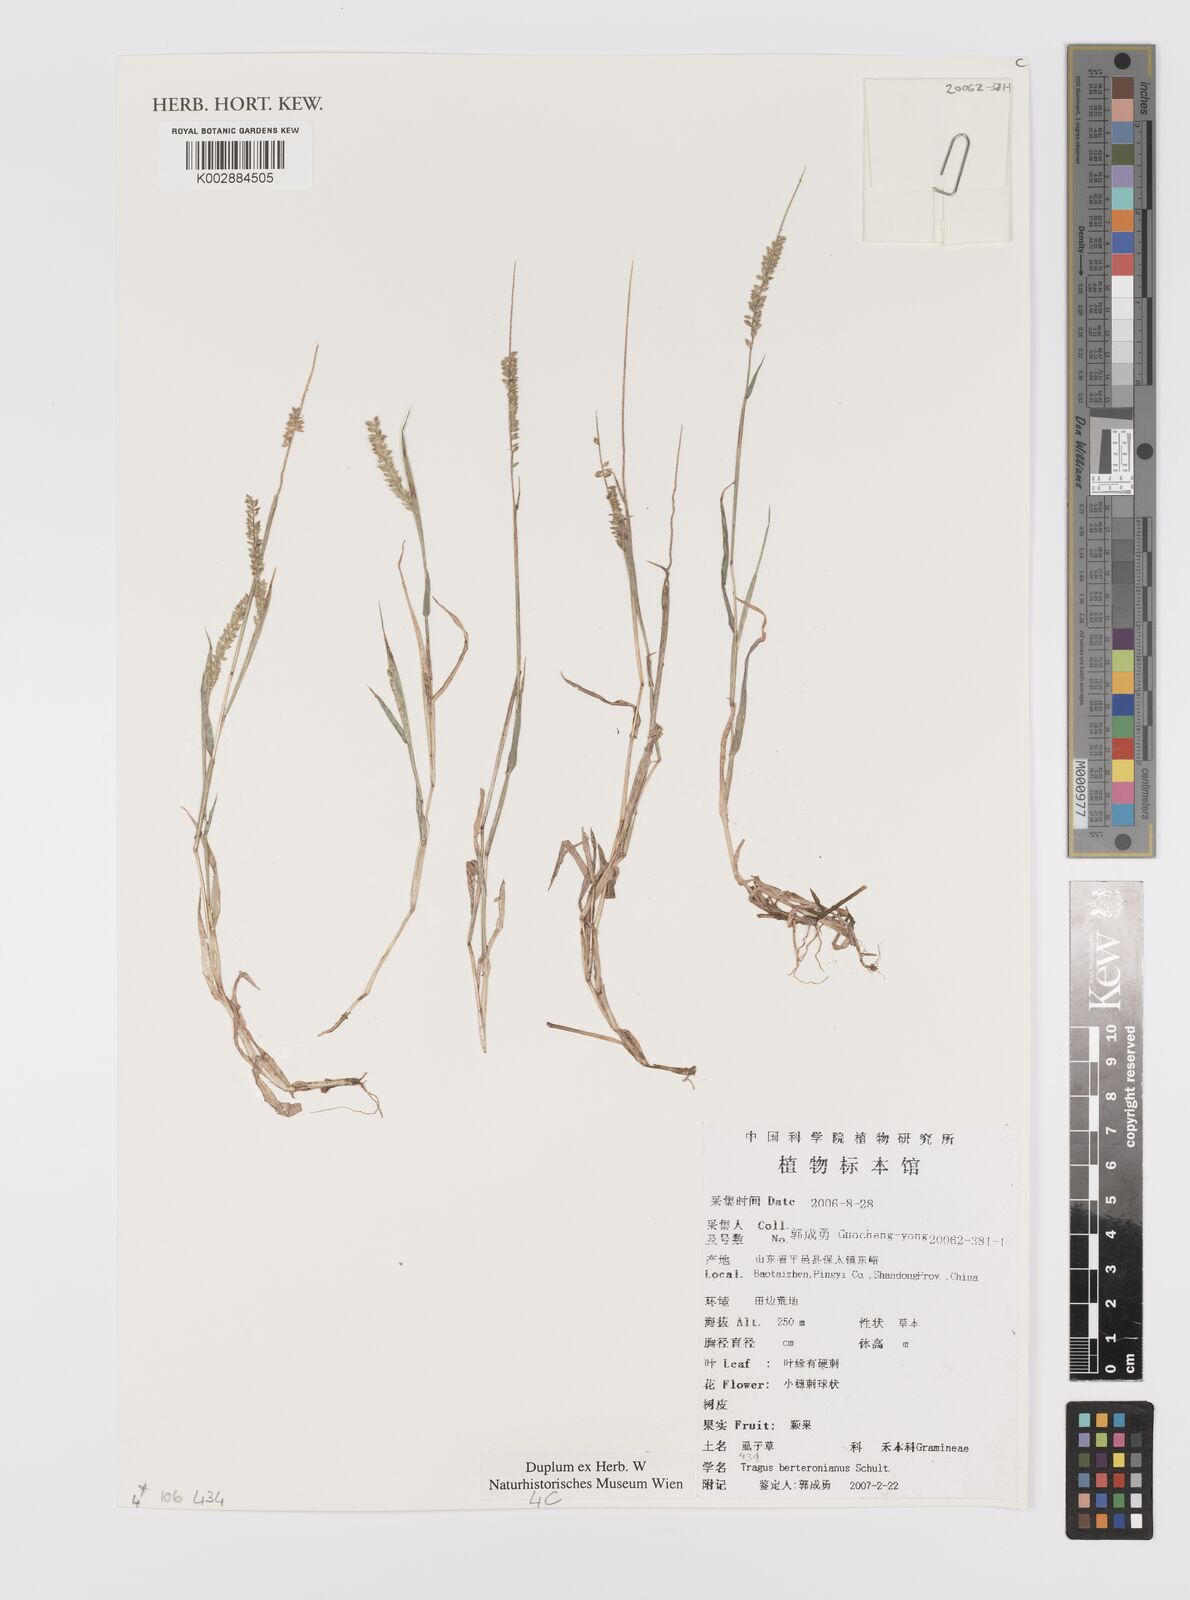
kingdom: Plantae
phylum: Tracheophyta
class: Liliopsida
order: Poales
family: Poaceae
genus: Tragus
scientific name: Tragus berteronianus
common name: African bur-grass
